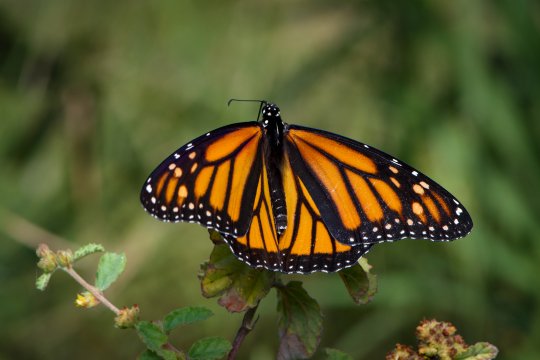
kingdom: Animalia
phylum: Arthropoda
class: Insecta
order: Lepidoptera
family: Nymphalidae
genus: Danaus
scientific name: Danaus plexippus
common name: Monarch
